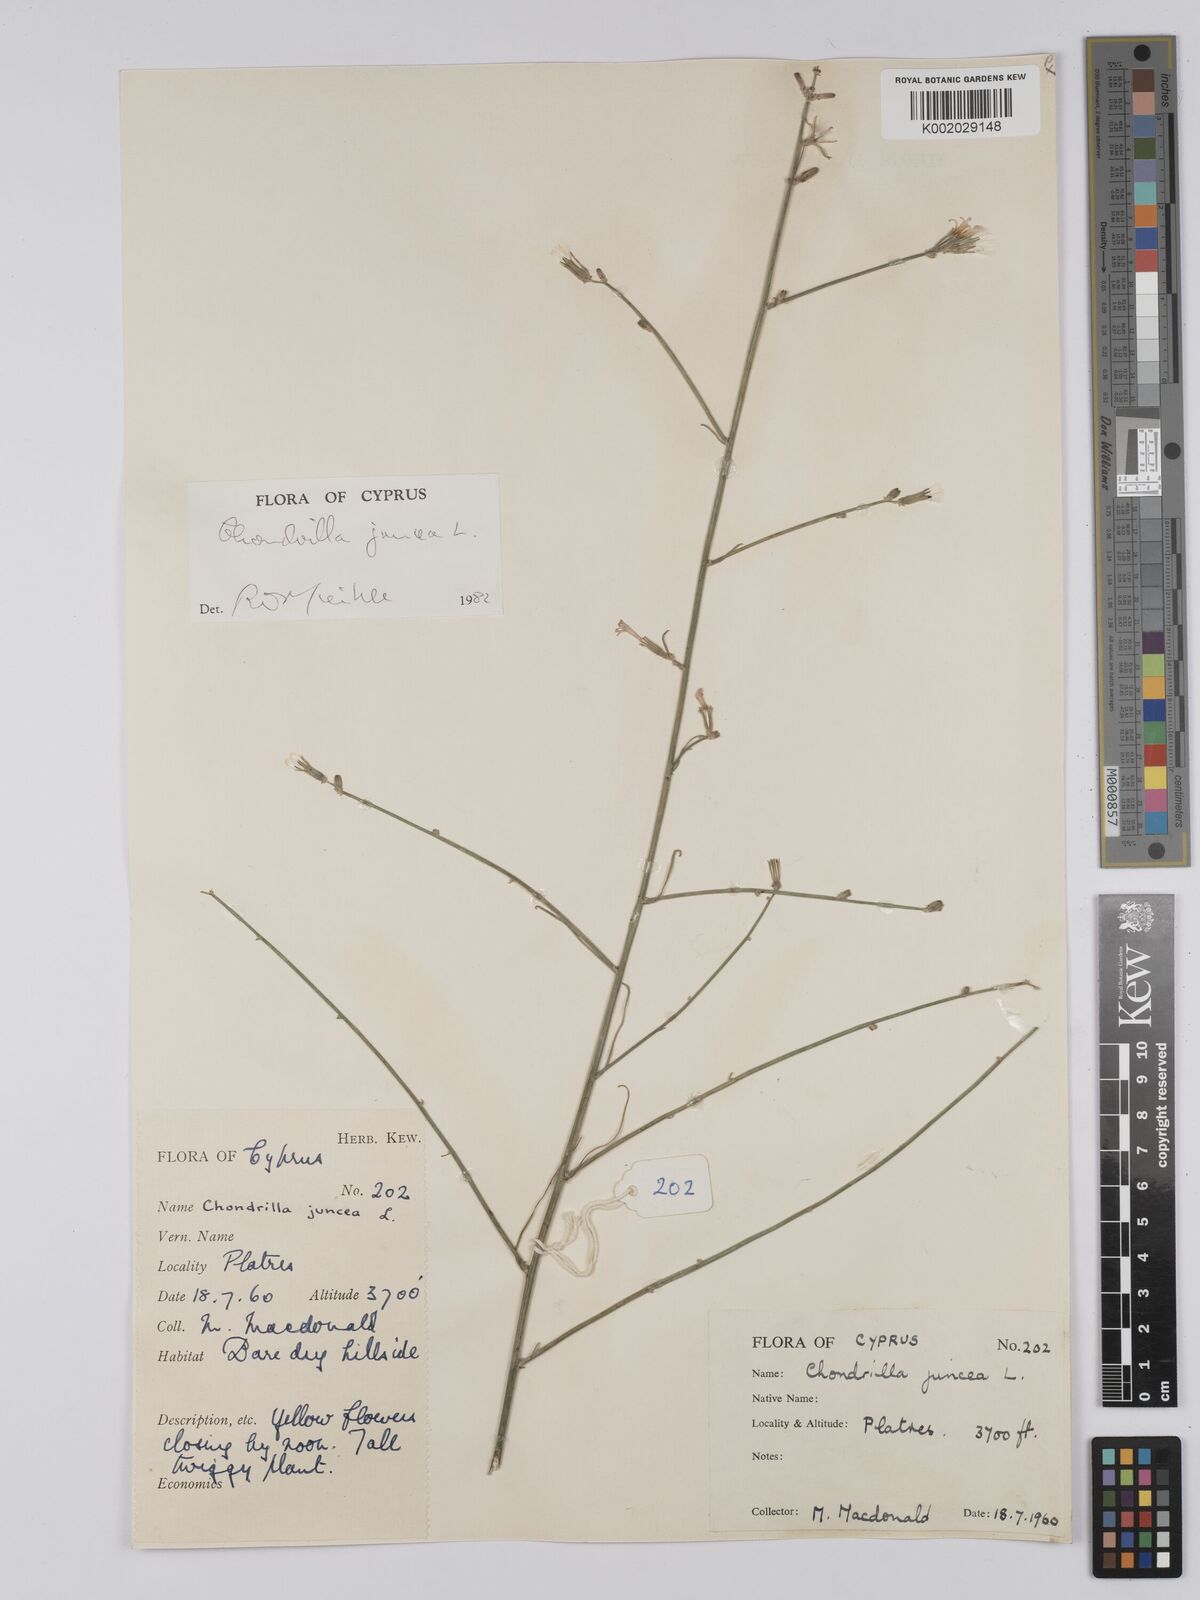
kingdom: Plantae
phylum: Tracheophyta
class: Magnoliopsida
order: Asterales
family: Asteraceae
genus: Chondrilla
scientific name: Chondrilla juncea
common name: Skeleton weed
